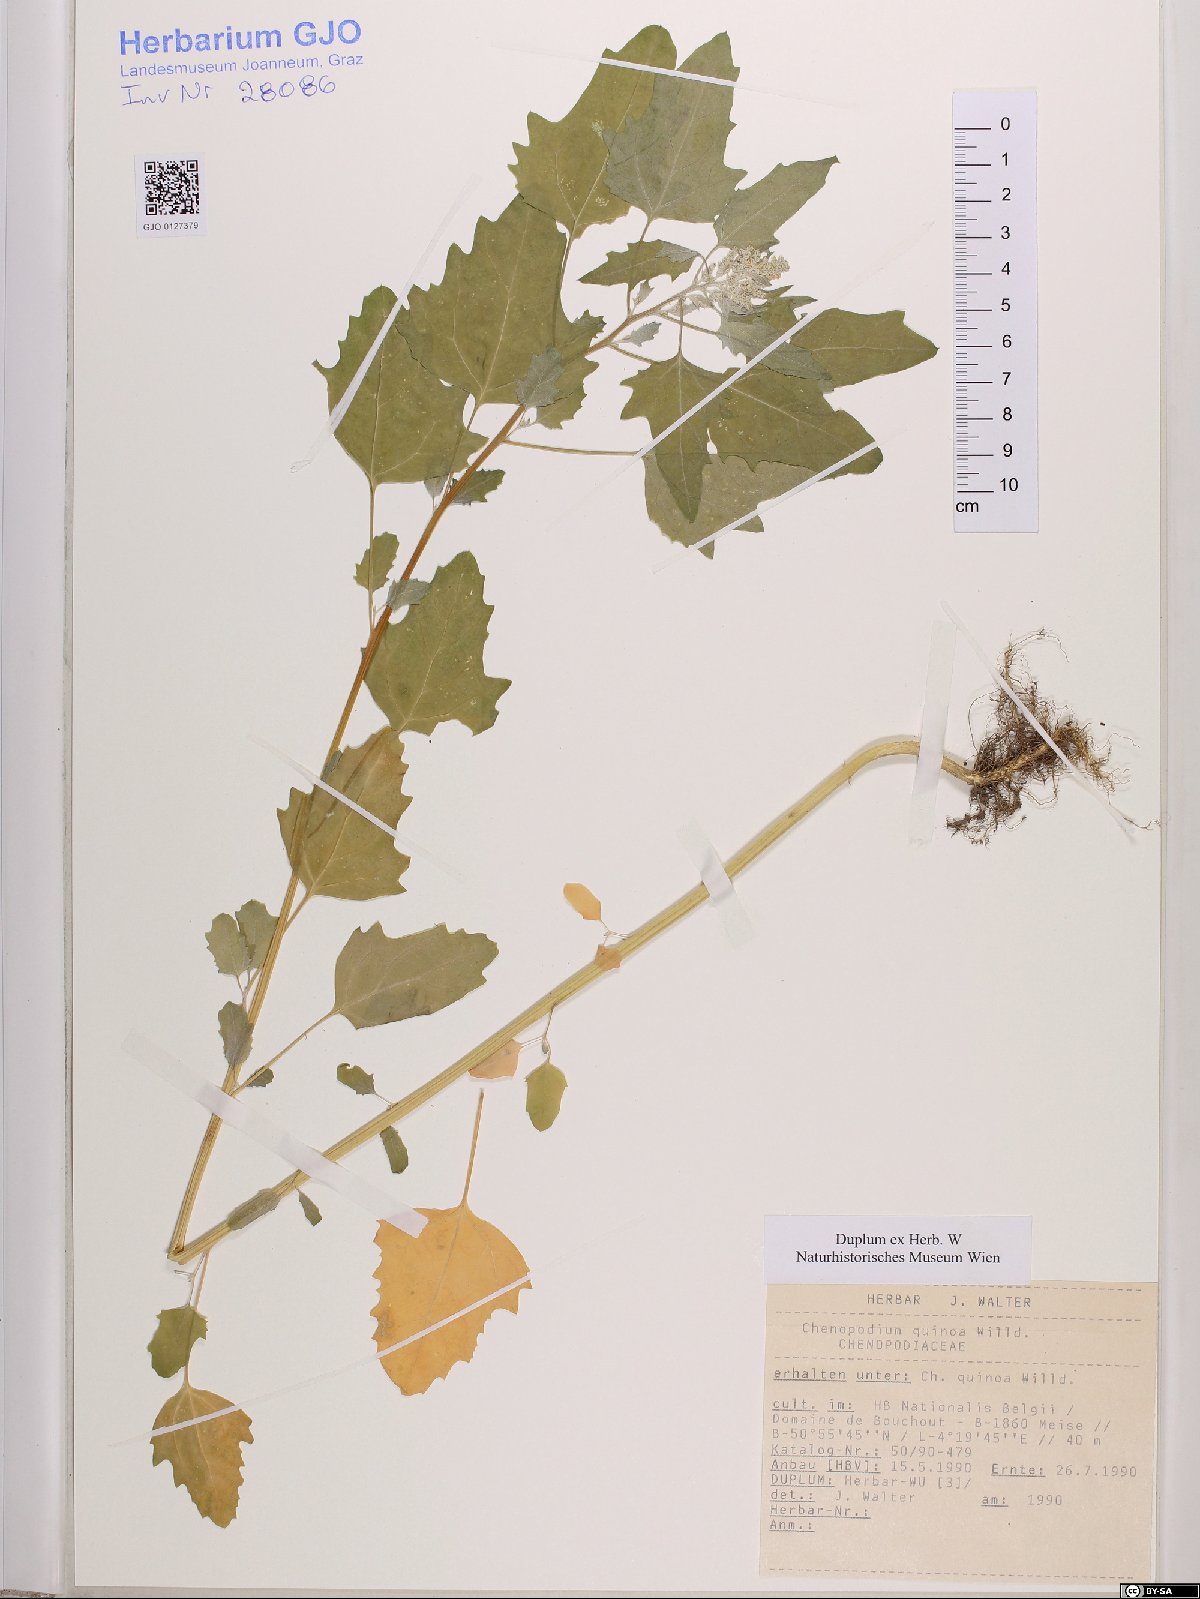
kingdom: Plantae
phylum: Tracheophyta
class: Magnoliopsida
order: Caryophyllales
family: Amaranthaceae
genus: Chenopodium
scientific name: Chenopodium quinoa
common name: Quinoa
